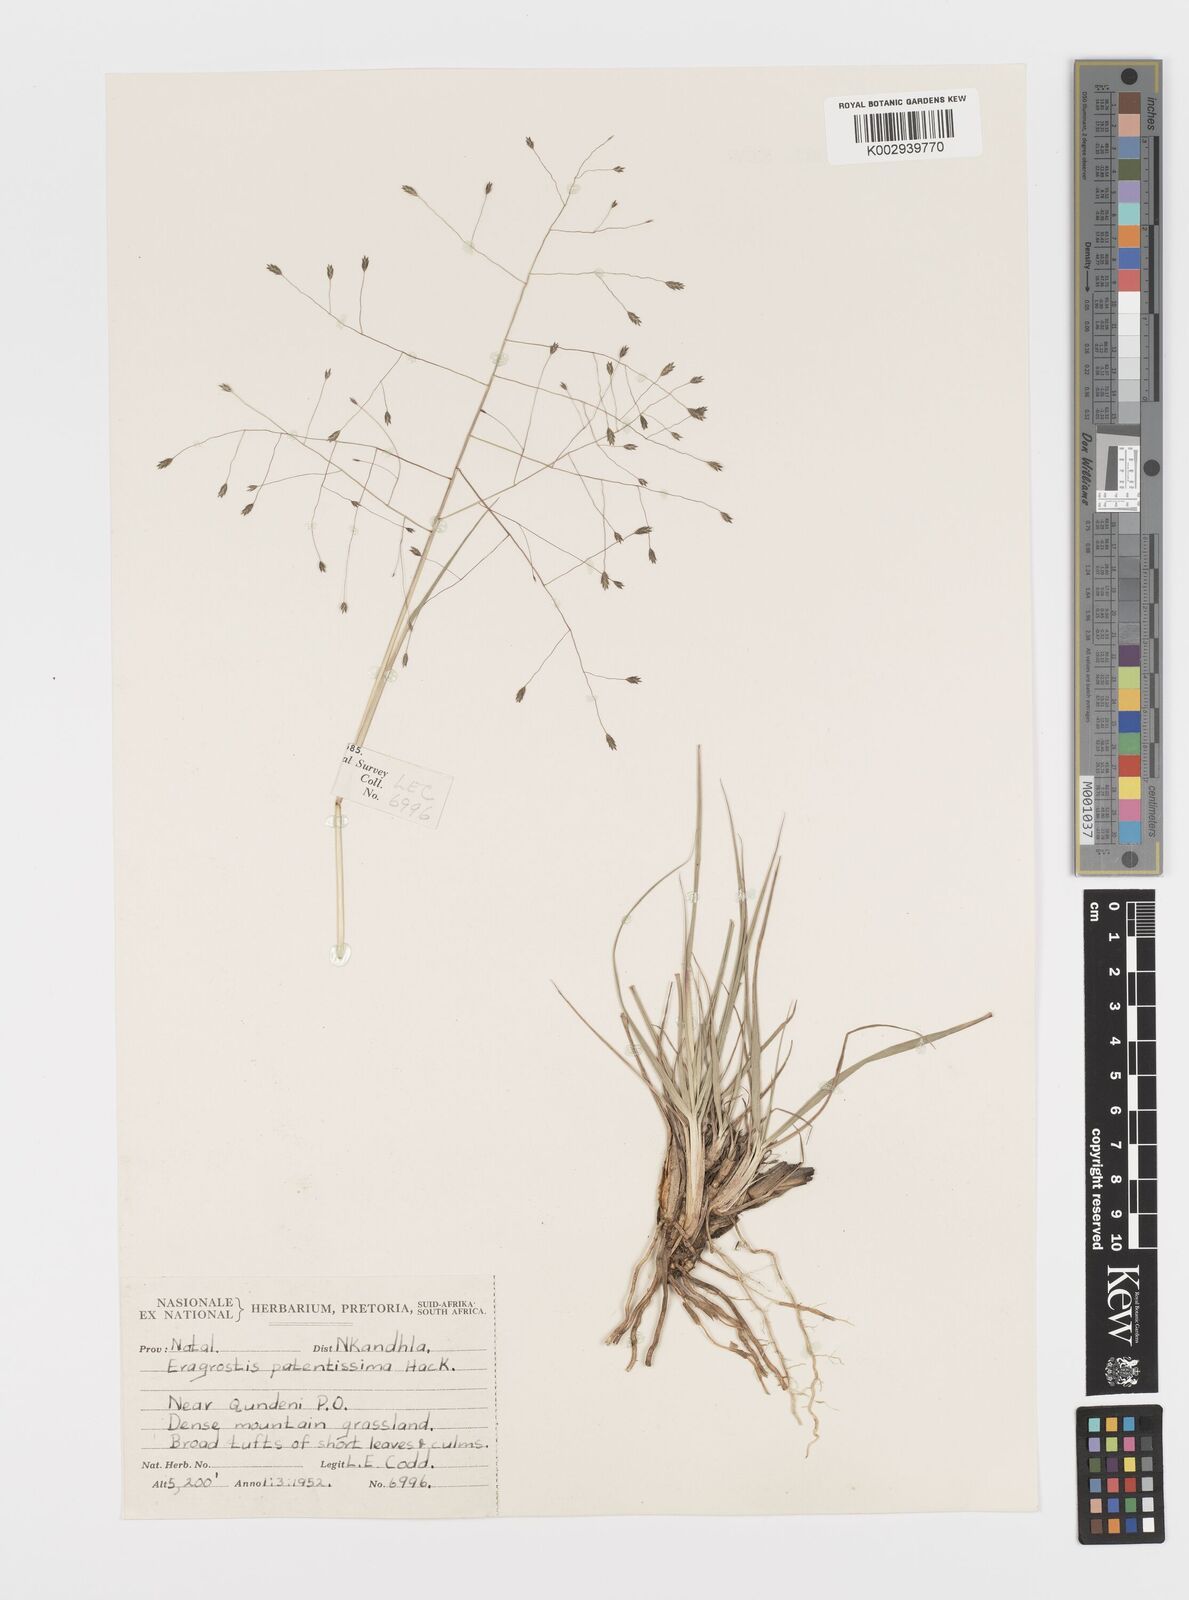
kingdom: Plantae
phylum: Tracheophyta
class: Liliopsida
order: Poales
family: Poaceae
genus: Eragrostis
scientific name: Eragrostis patentissima
